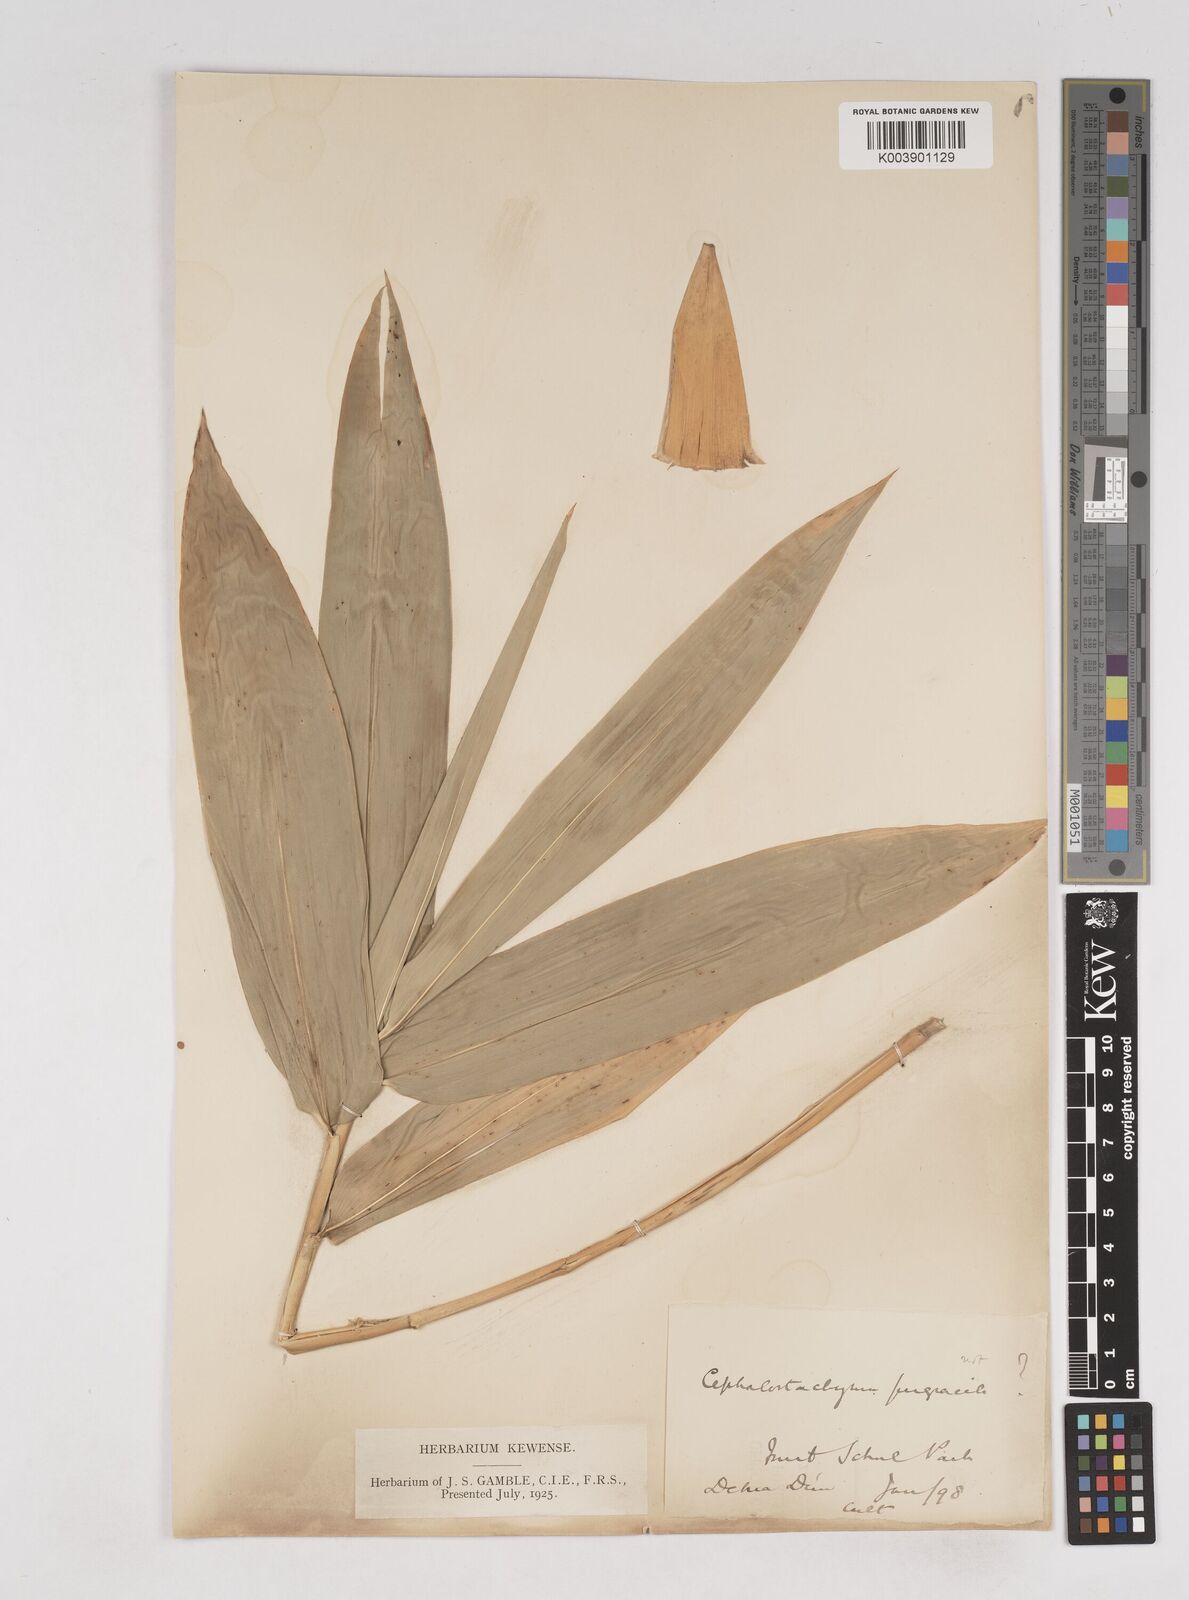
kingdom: Plantae
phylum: Tracheophyta
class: Liliopsida
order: Poales
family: Poaceae
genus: Cephalostachyum
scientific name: Cephalostachyum
